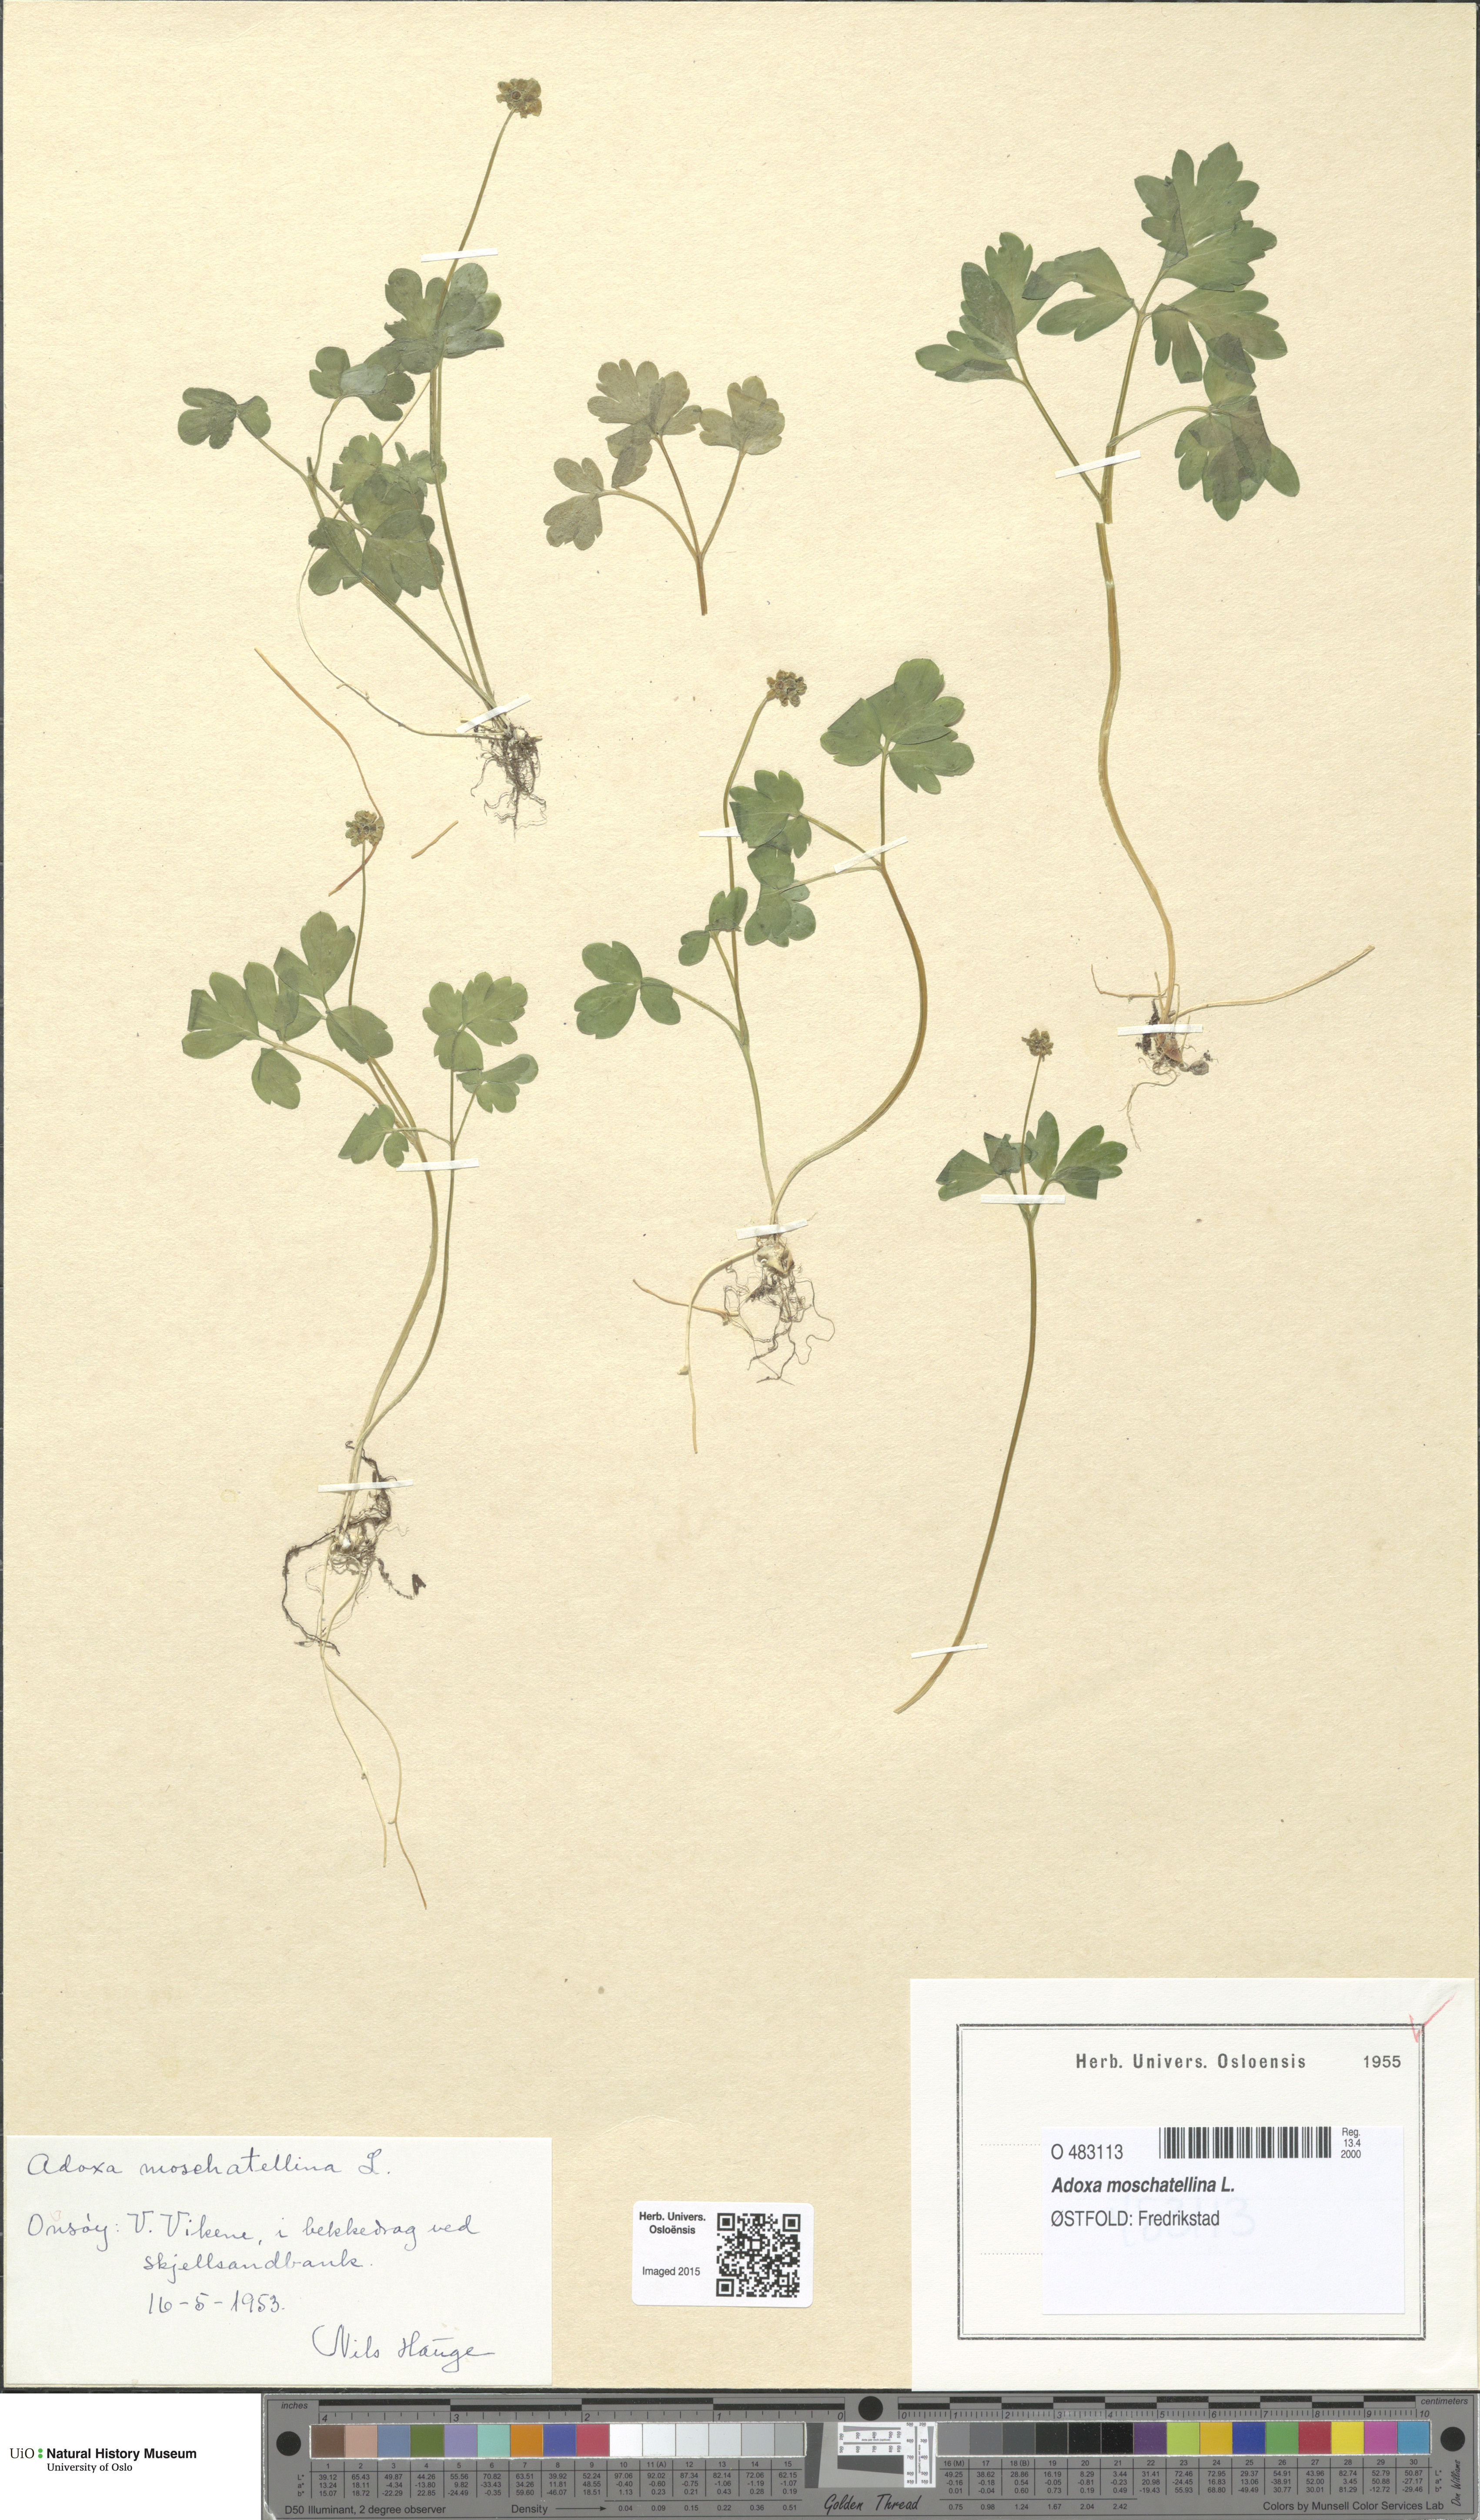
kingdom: Plantae
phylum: Tracheophyta
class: Magnoliopsida
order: Dipsacales
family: Viburnaceae
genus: Adoxa
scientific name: Adoxa moschatellina
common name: Moschatel
